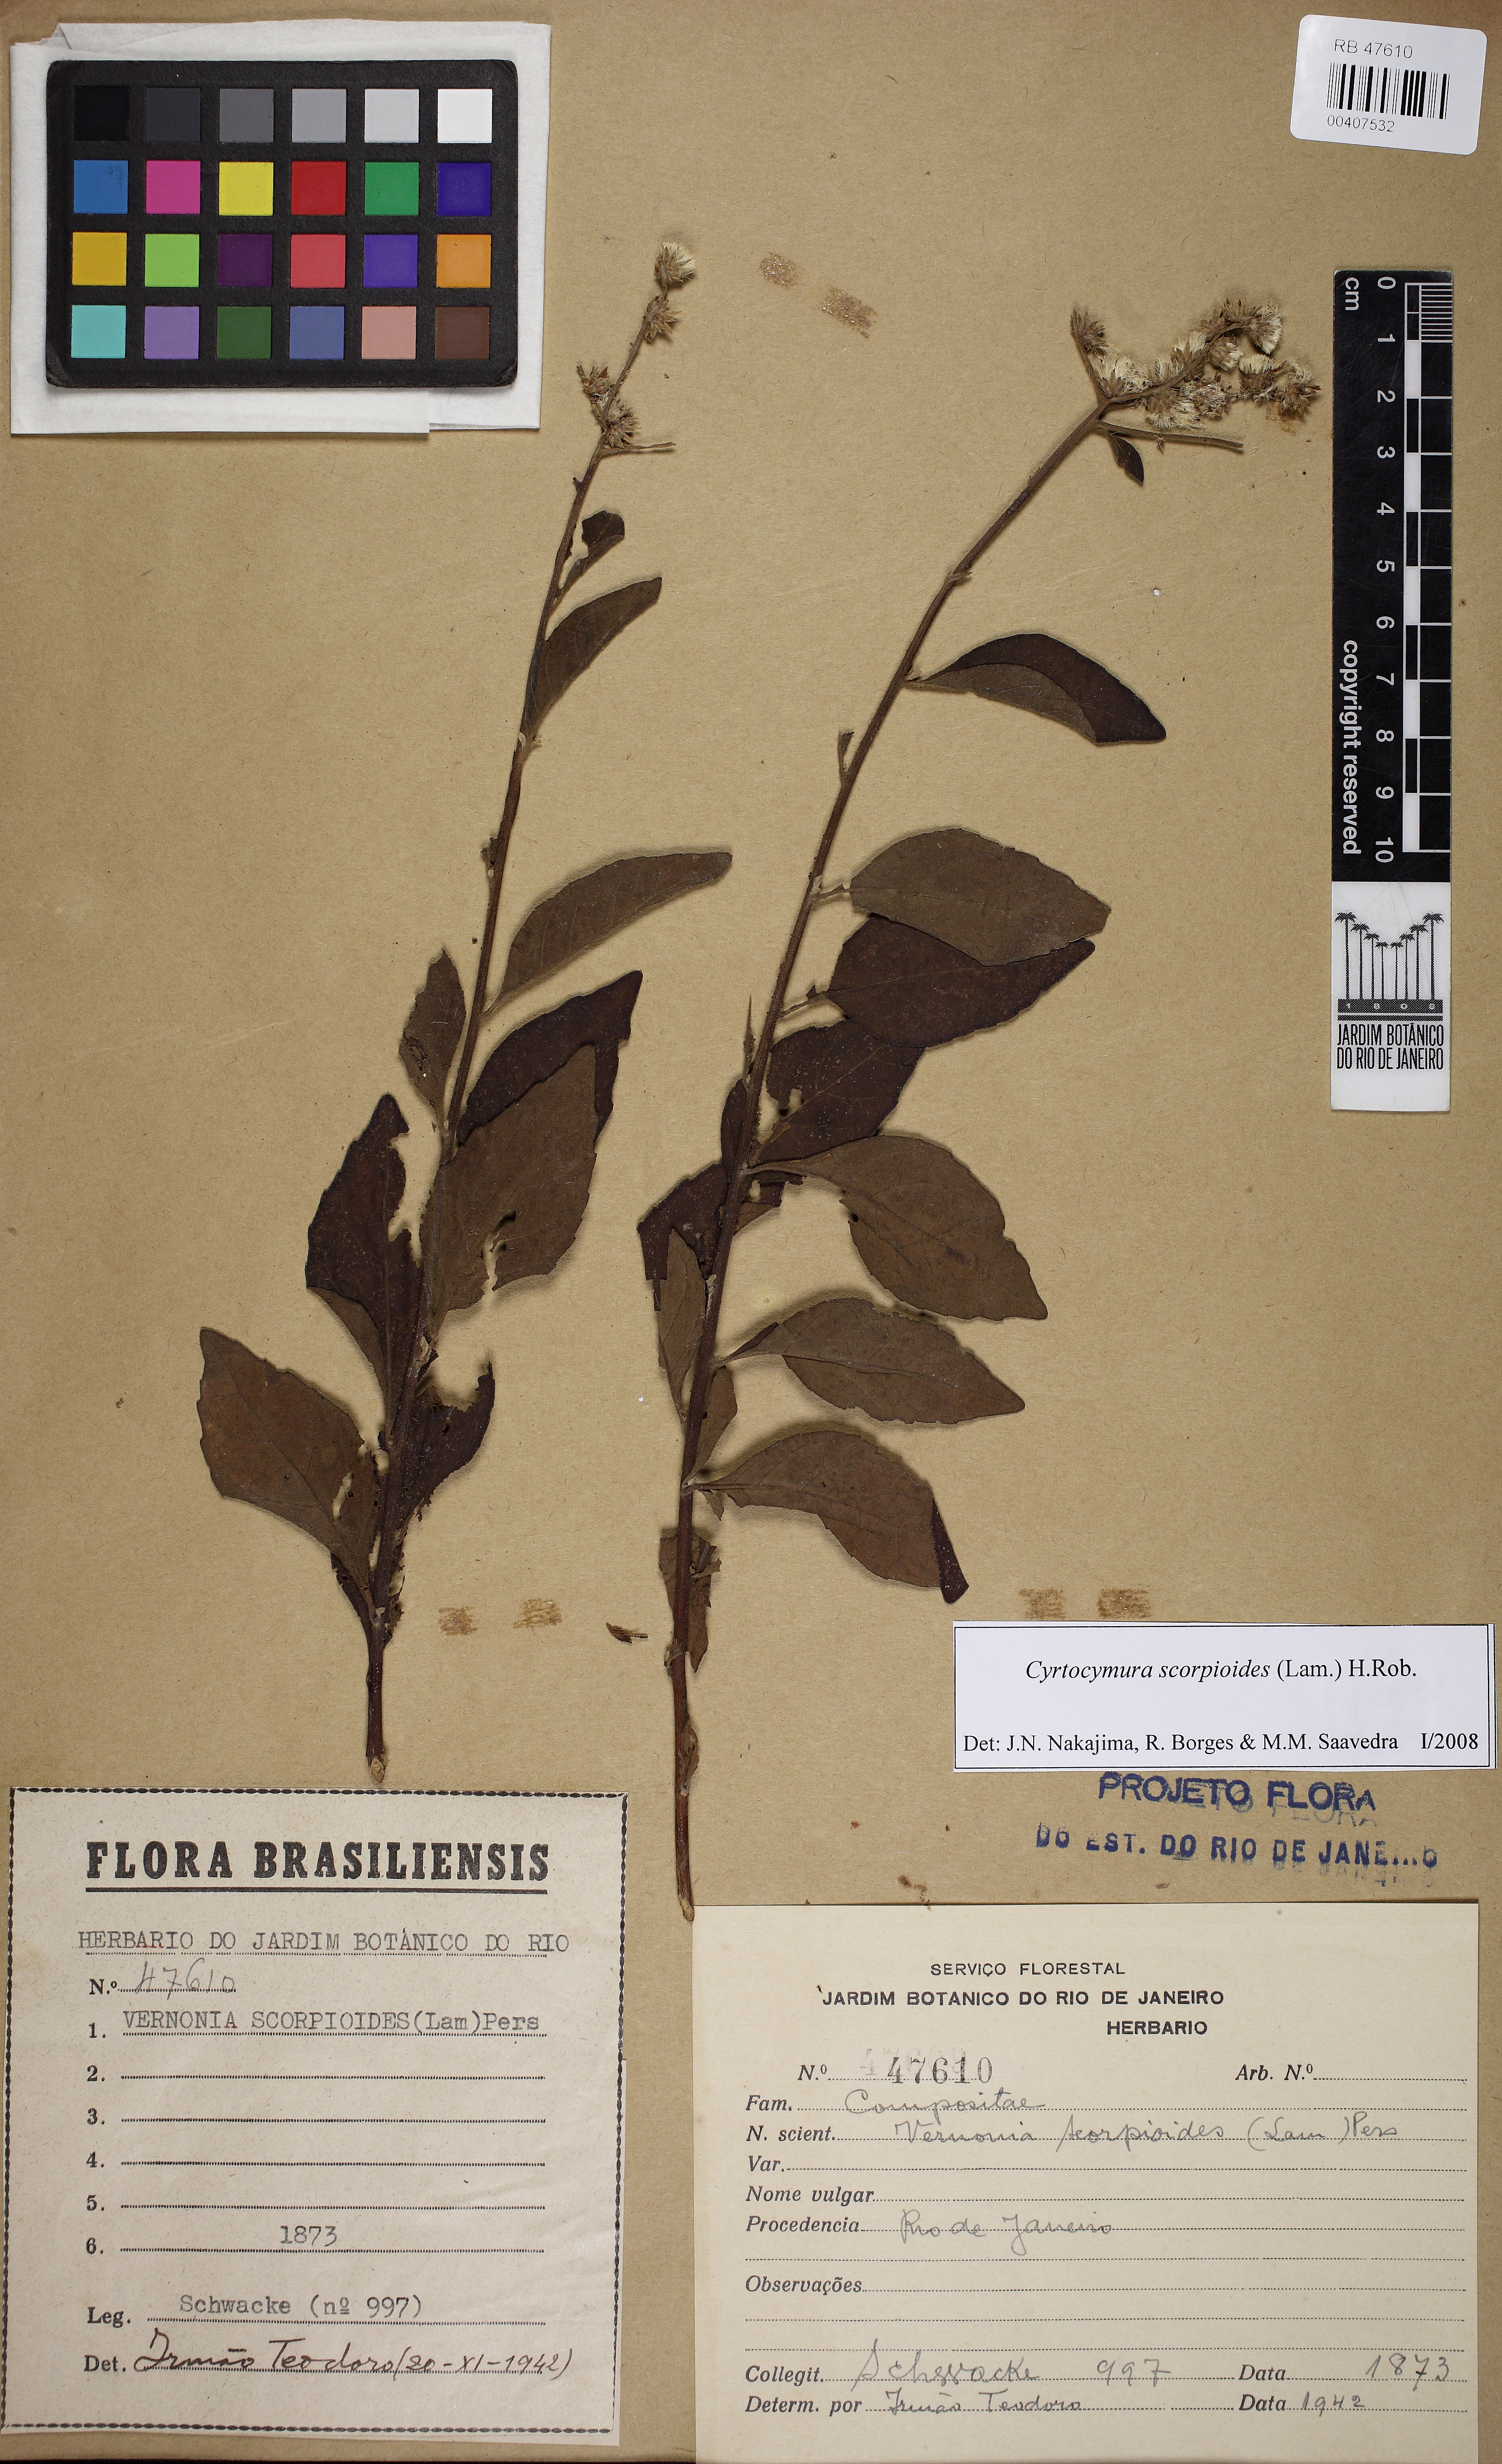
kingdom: Plantae
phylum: Tracheophyta
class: Magnoliopsida
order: Asterales
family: Asteraceae
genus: Cyrtocymura
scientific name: Cyrtocymura scorpioides
